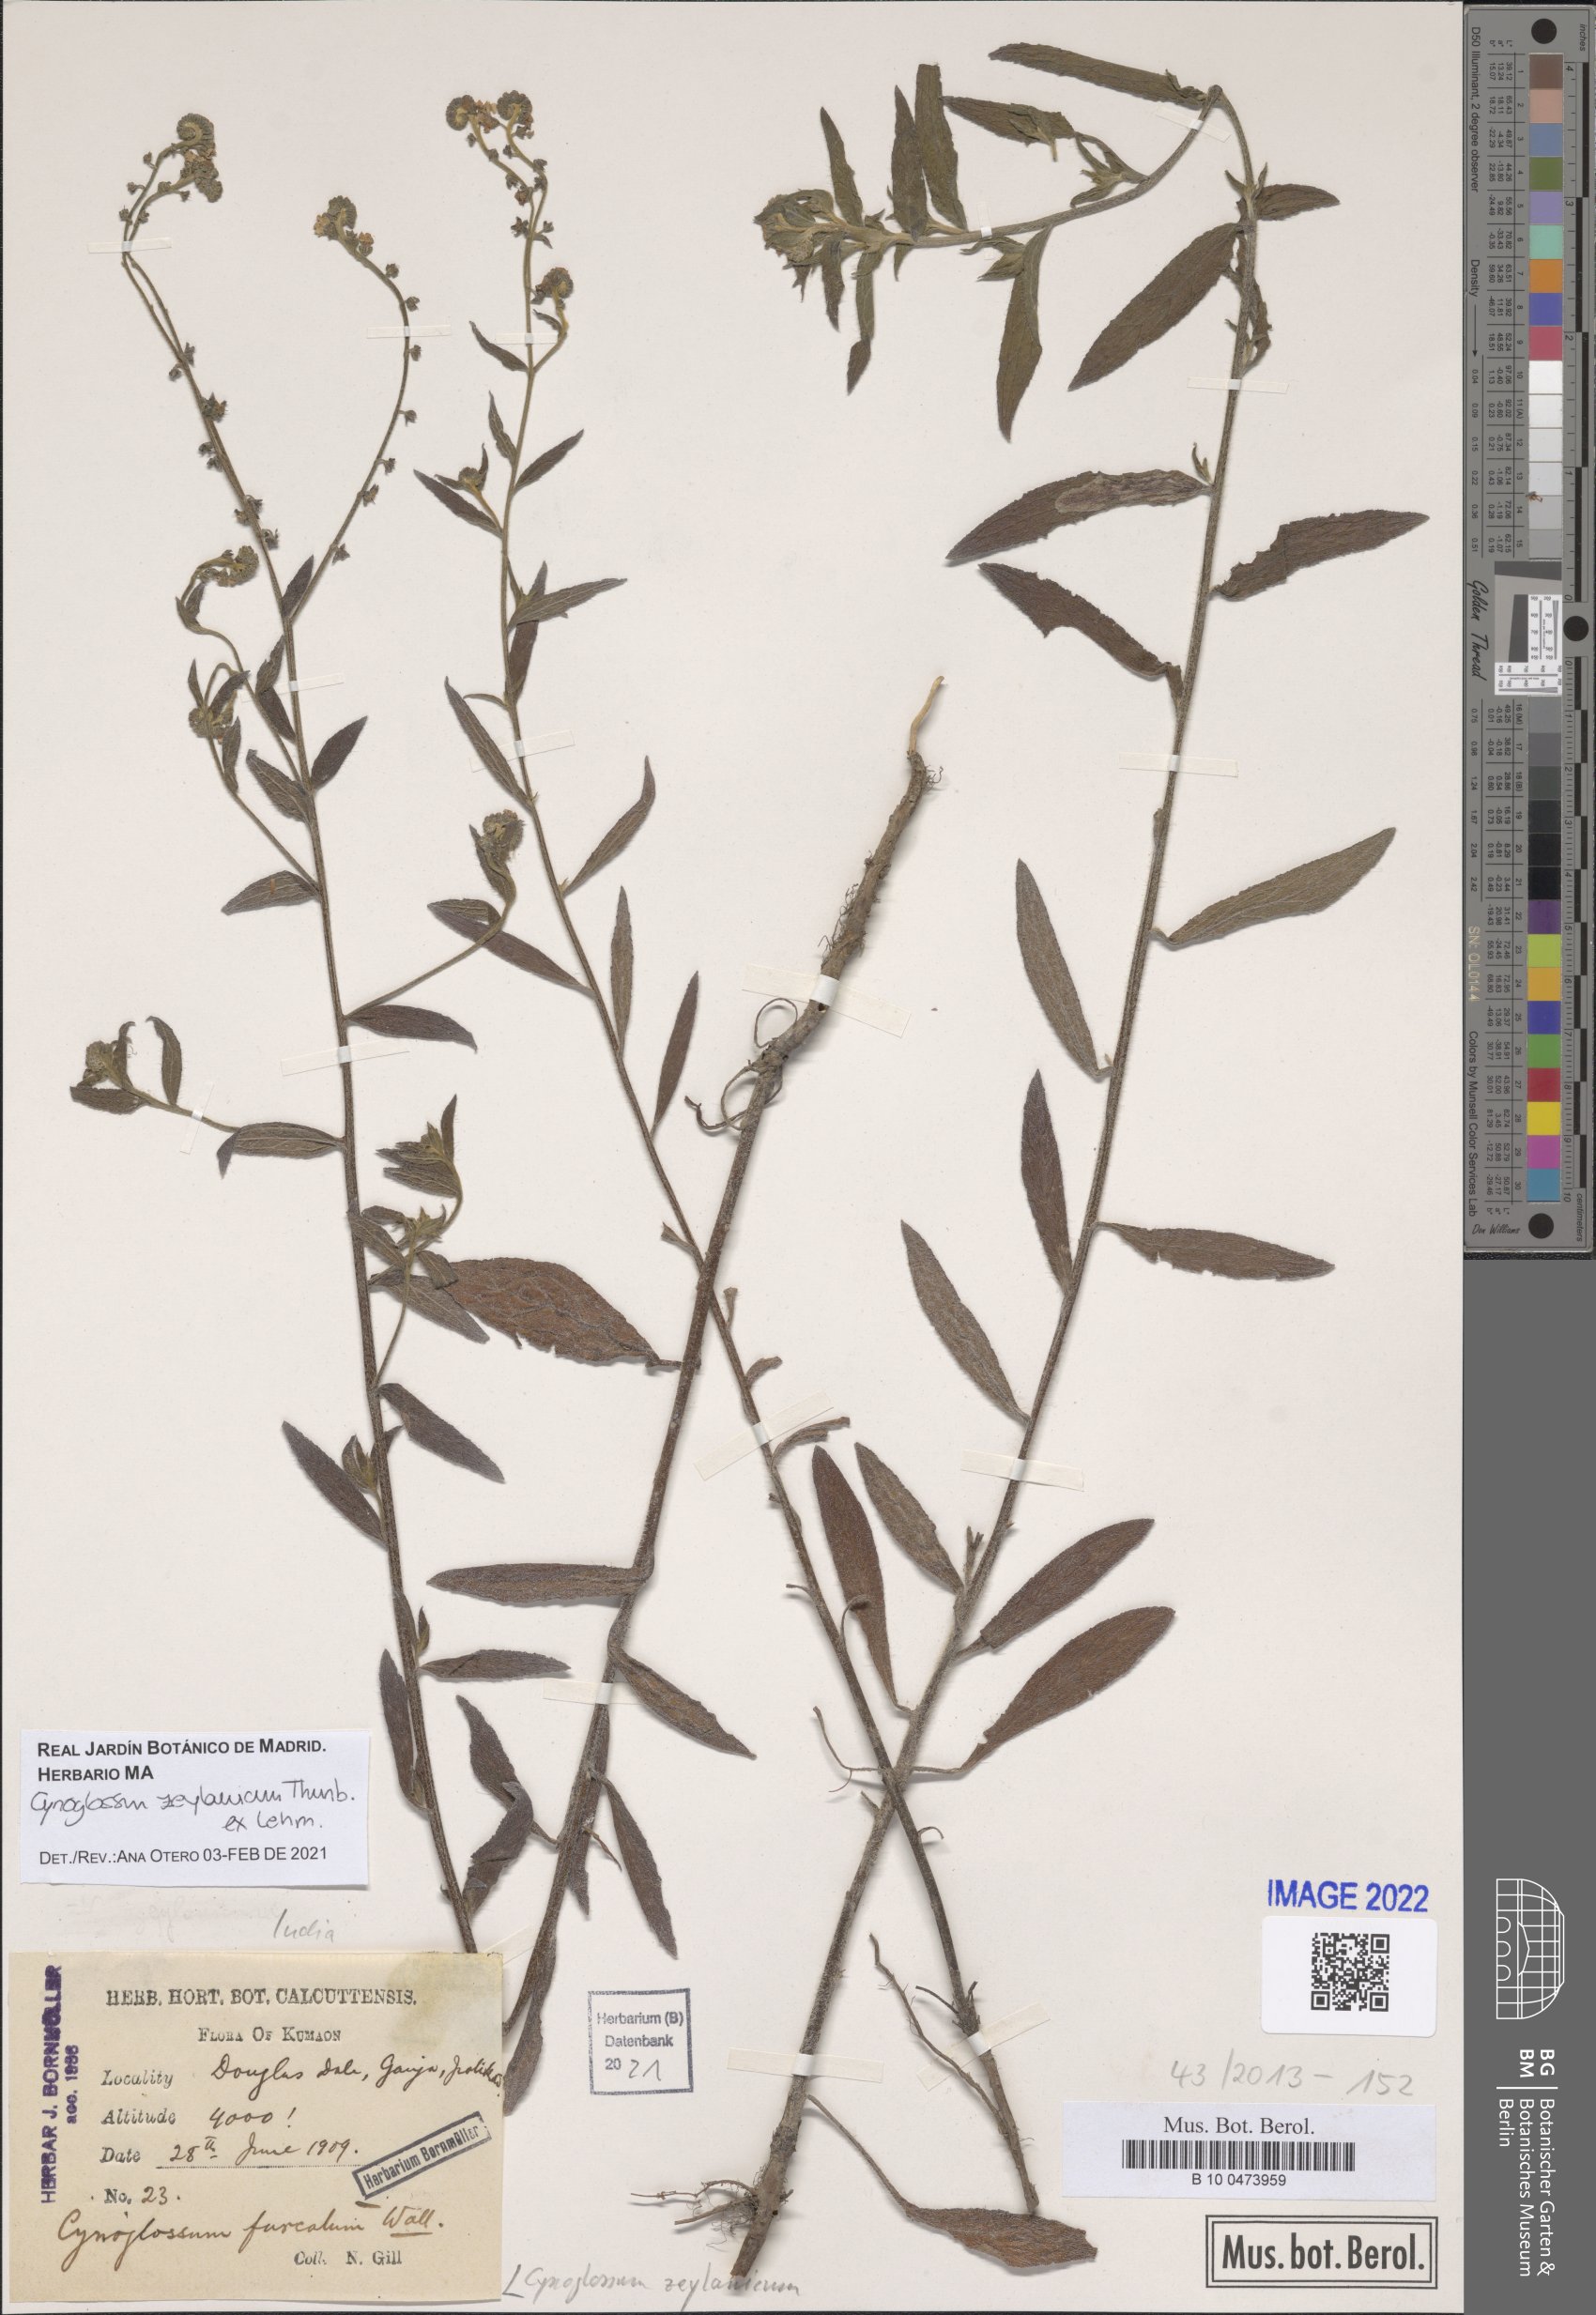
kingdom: Plantae
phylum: Tracheophyta
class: Magnoliopsida
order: Boraginales
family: Boraginaceae
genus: Cynoglossum
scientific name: Cynoglossum zeylanicum
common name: Ceylon hound's tongue
